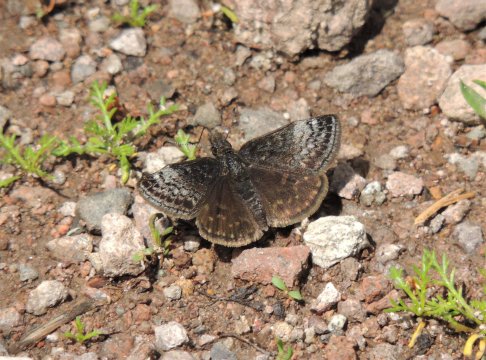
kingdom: Animalia
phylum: Arthropoda
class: Insecta
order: Lepidoptera
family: Hesperiidae
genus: Erynnis
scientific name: Erynnis icelus
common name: Dreamy Duskywing
